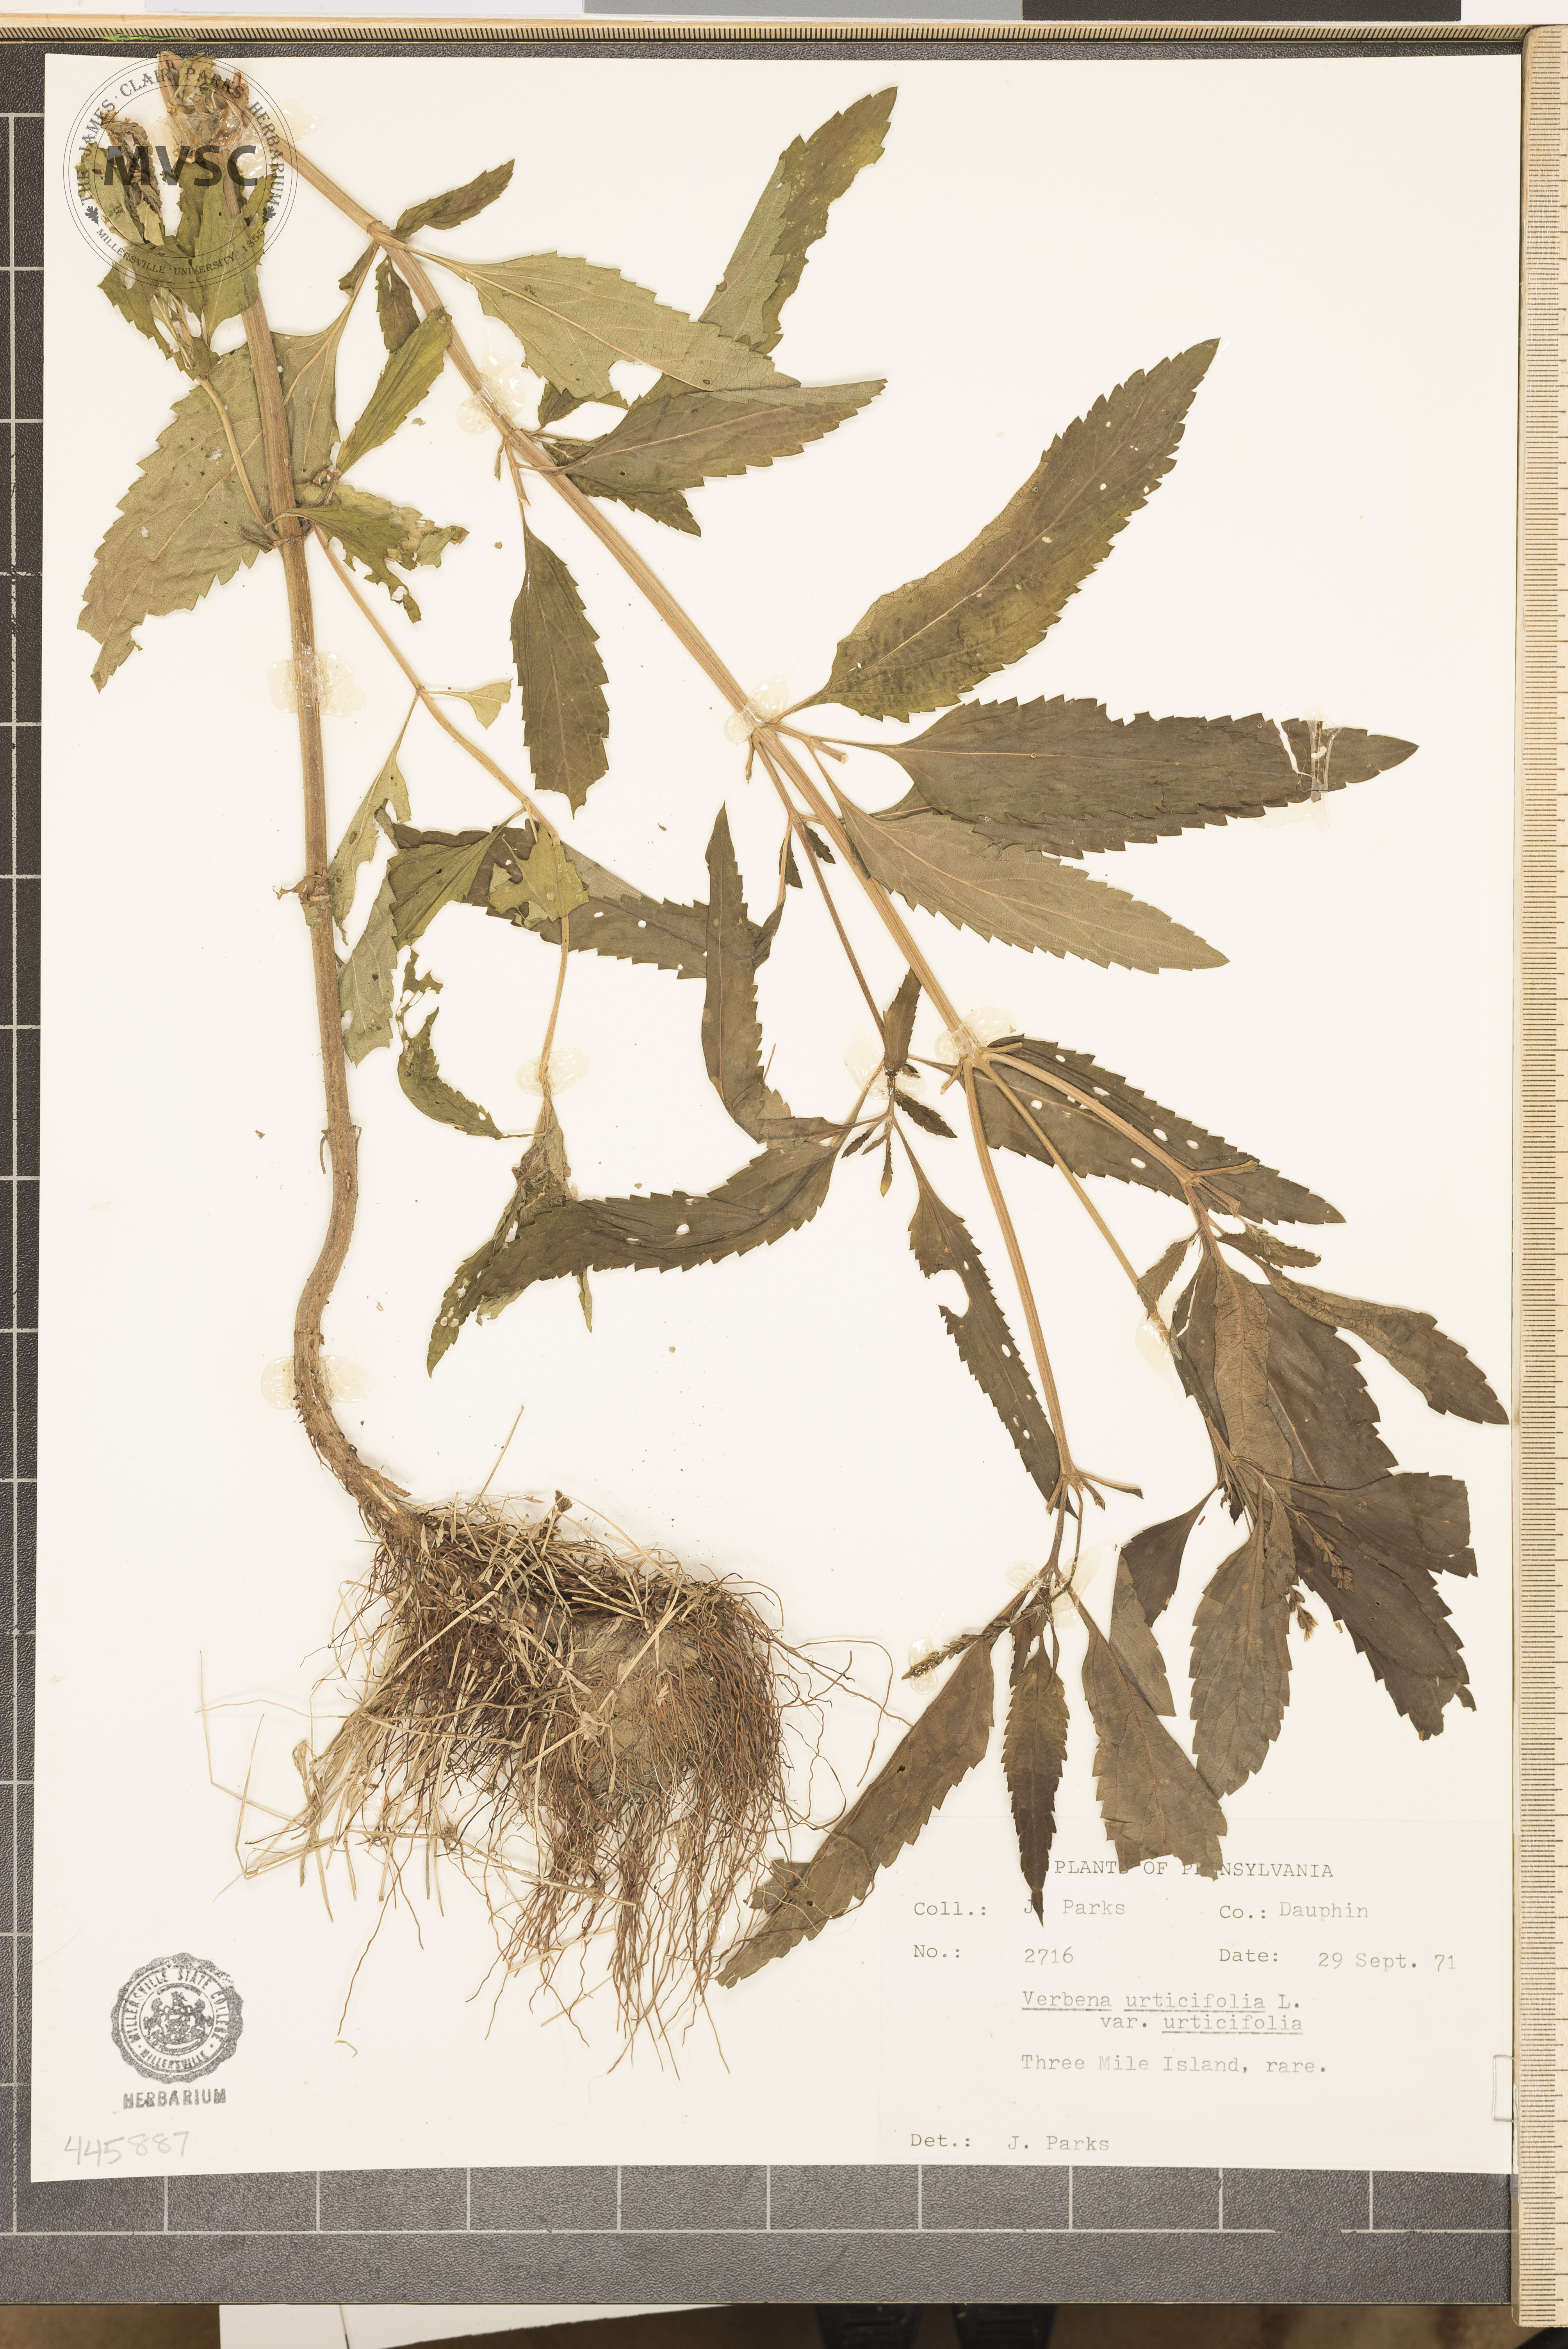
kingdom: Plantae
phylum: Tracheophyta
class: Magnoliopsida
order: Lamiales
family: Verbenaceae
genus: Verbena
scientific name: Verbena urticifolia
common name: Nettle-leaved vervain
